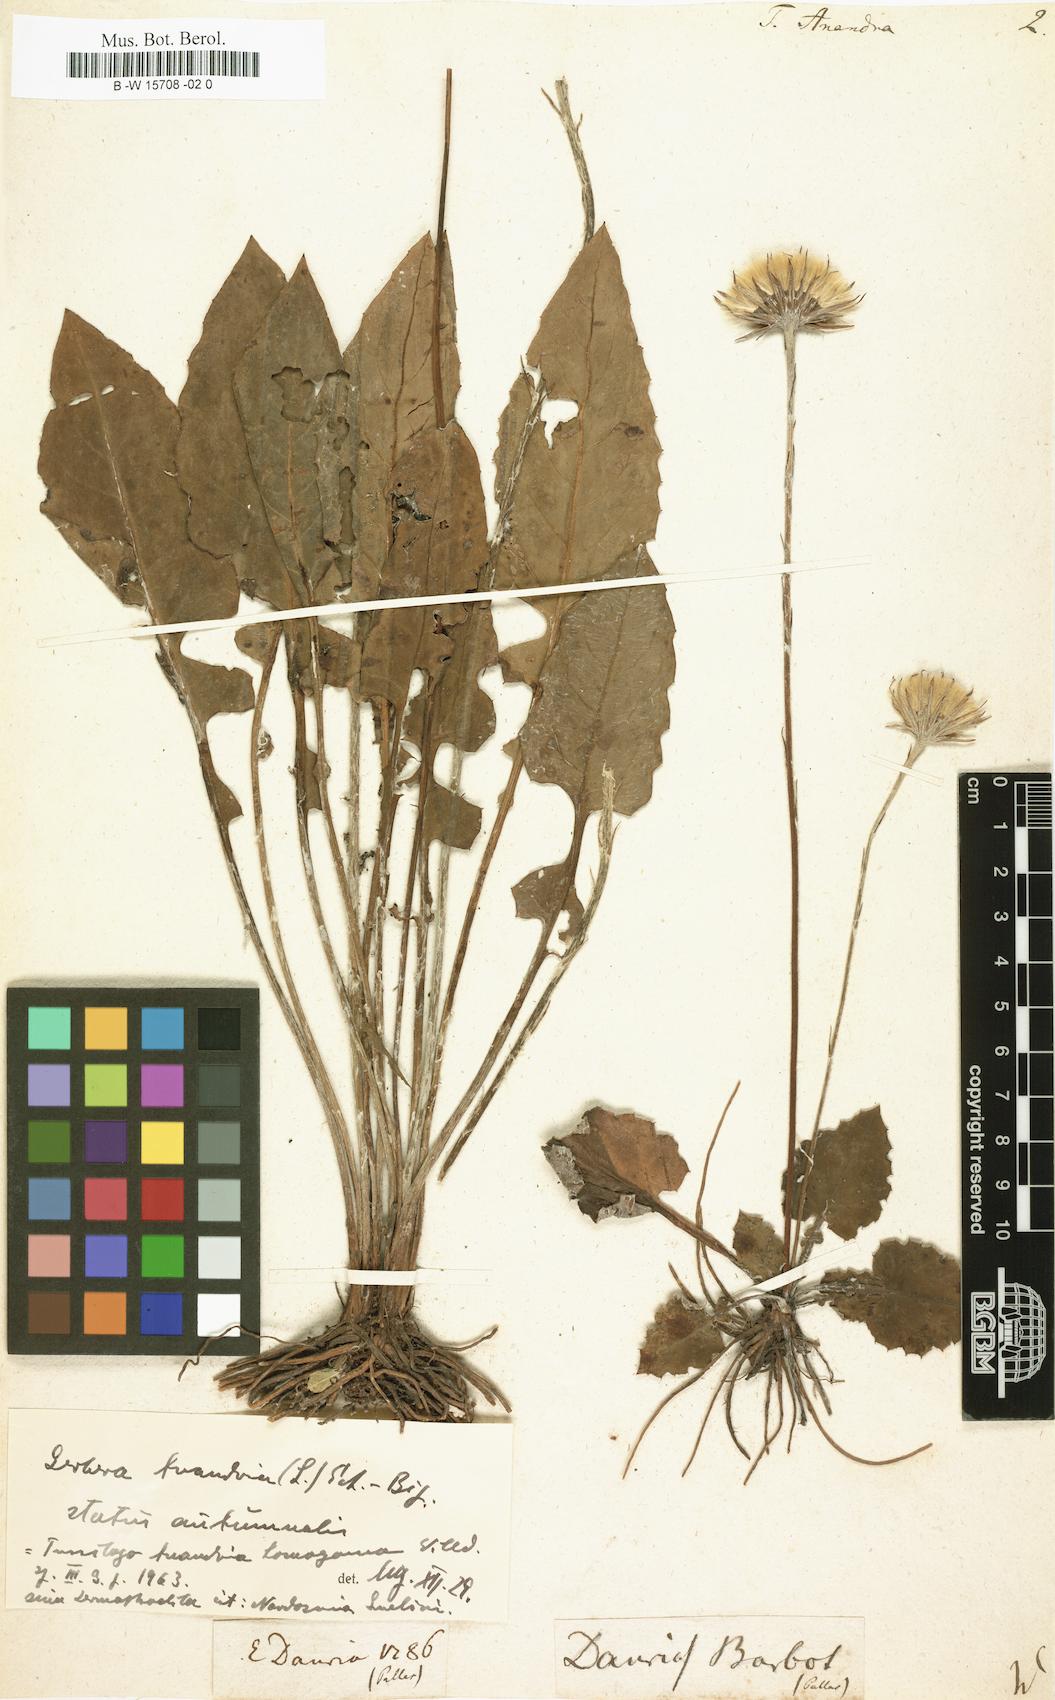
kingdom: Plantae
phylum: Tracheophyta
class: Magnoliopsida
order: Asterales
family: Asteraceae
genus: Leibnitzia
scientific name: Leibnitzia anandria
